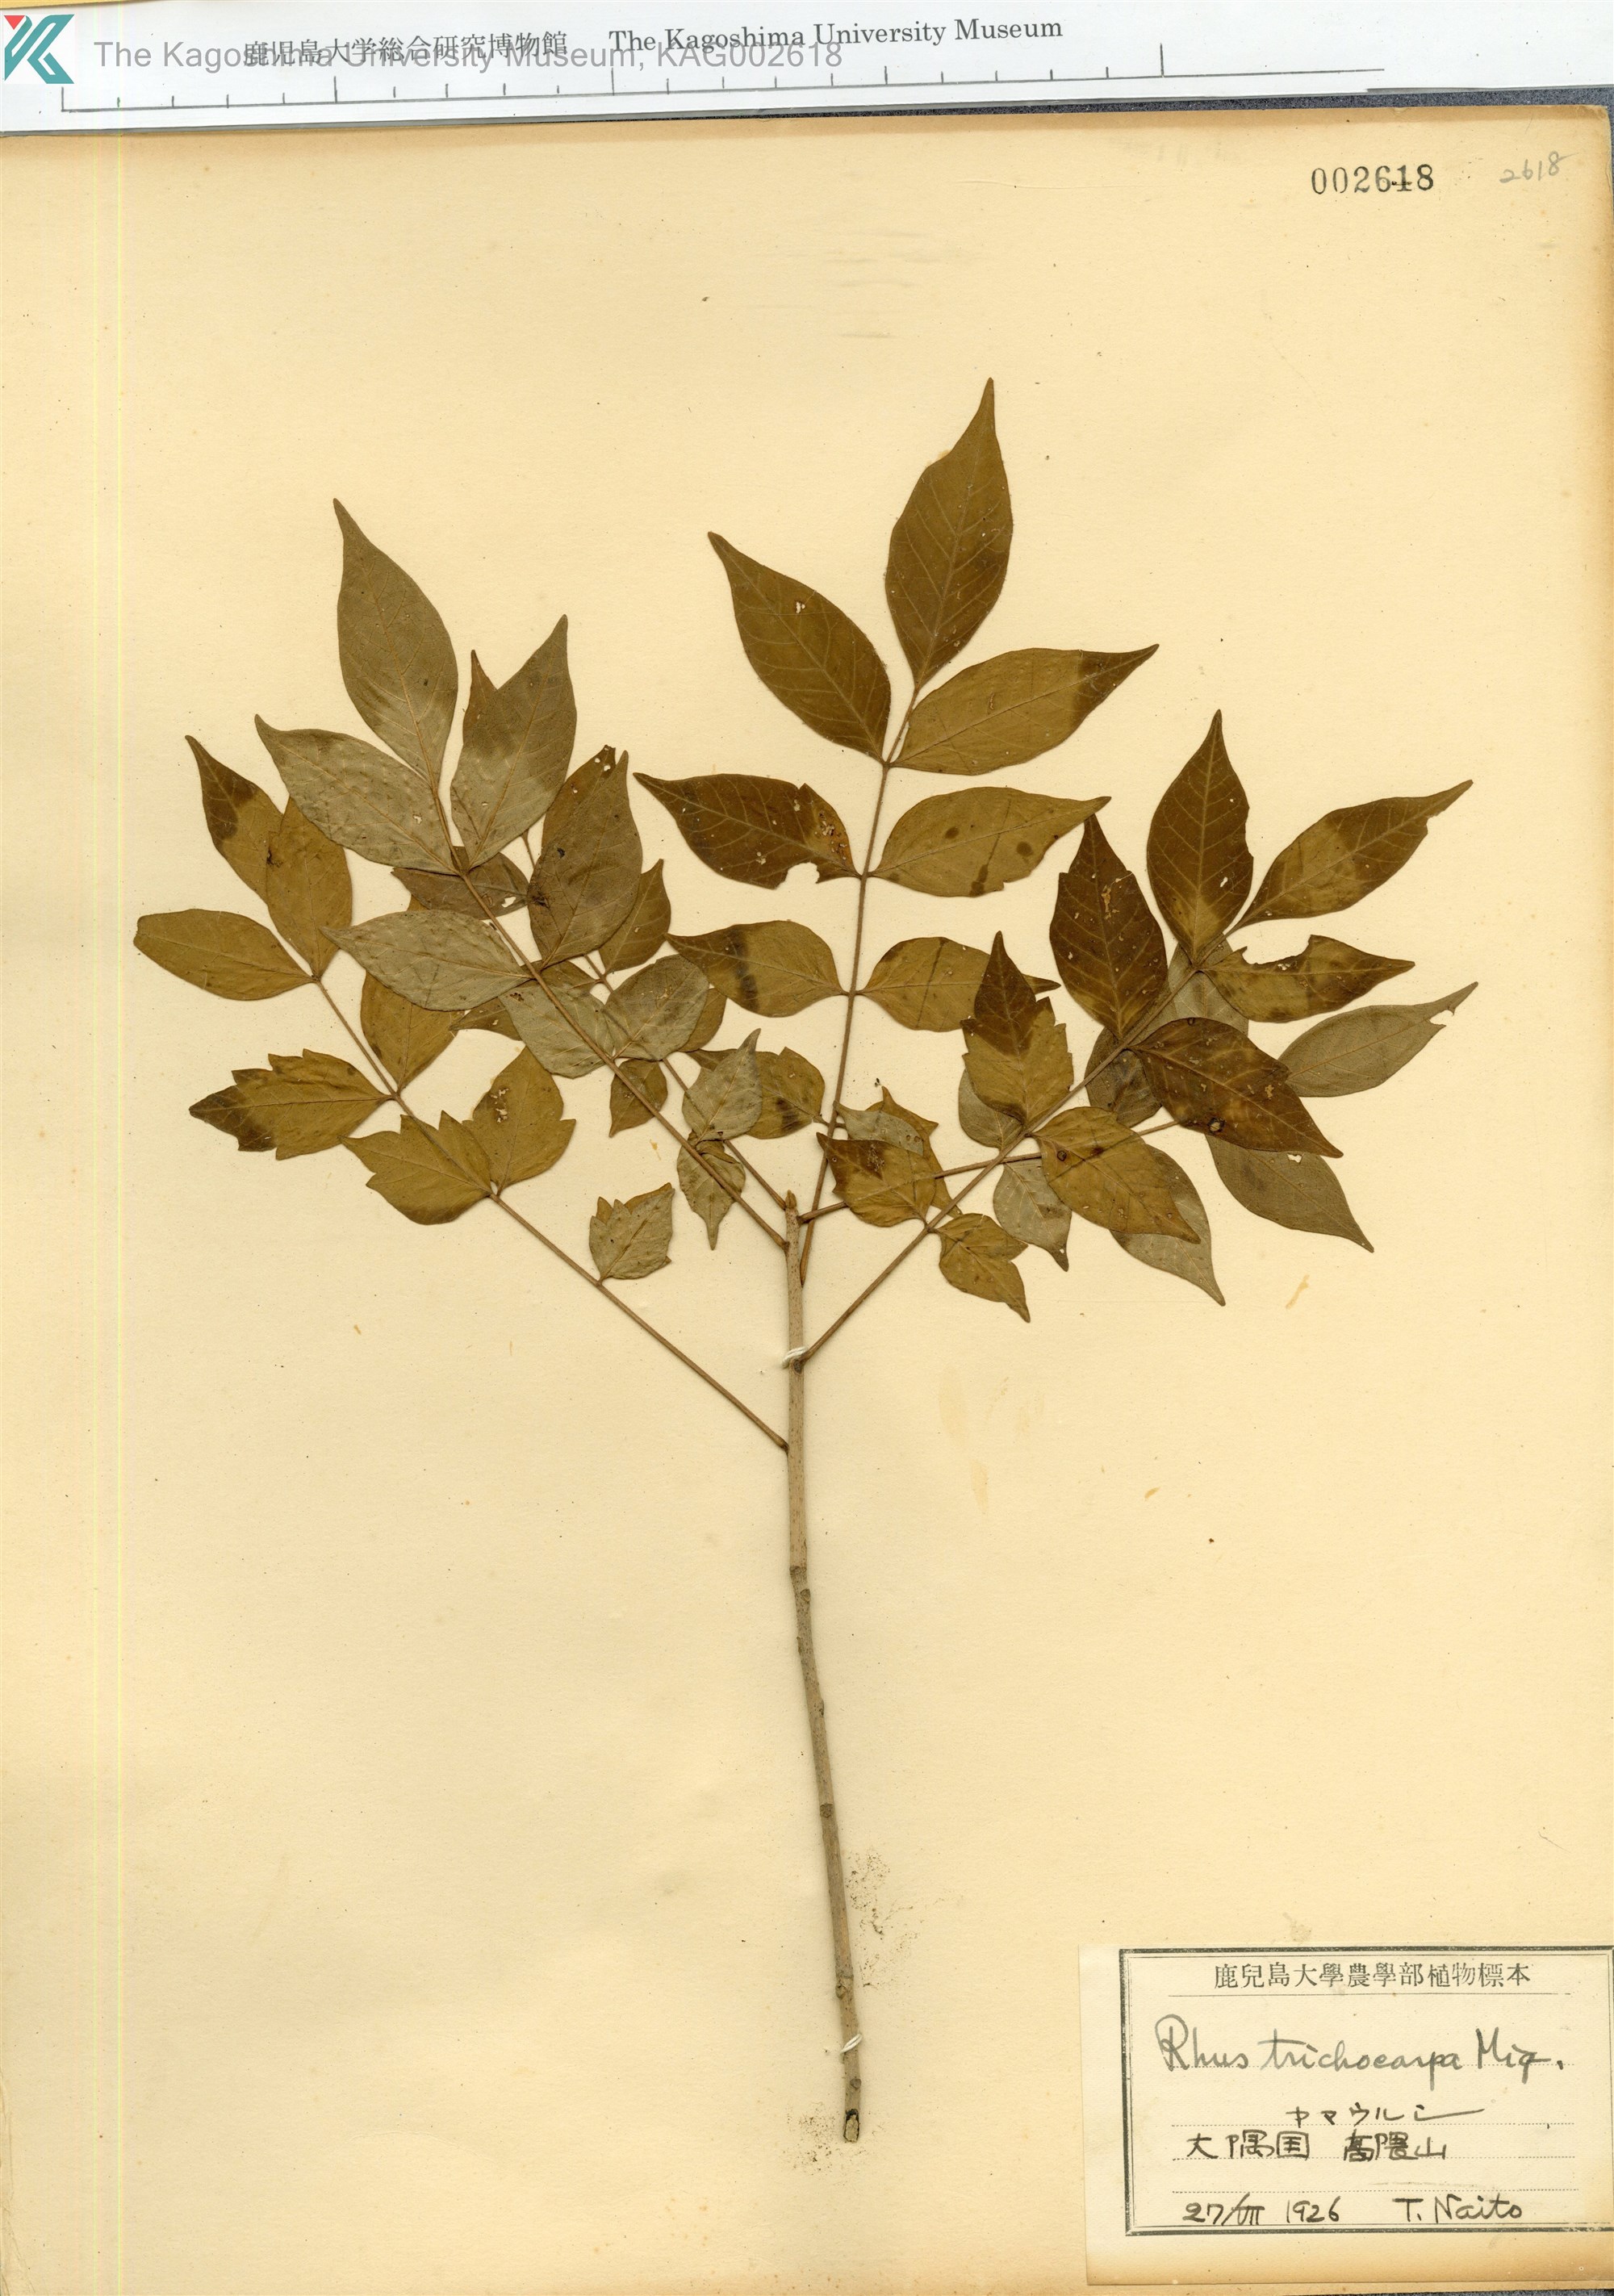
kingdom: Plantae
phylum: Tracheophyta
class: Magnoliopsida
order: Sapindales
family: Anacardiaceae
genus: Toxicodendron
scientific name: Toxicodendron trichocarpum
